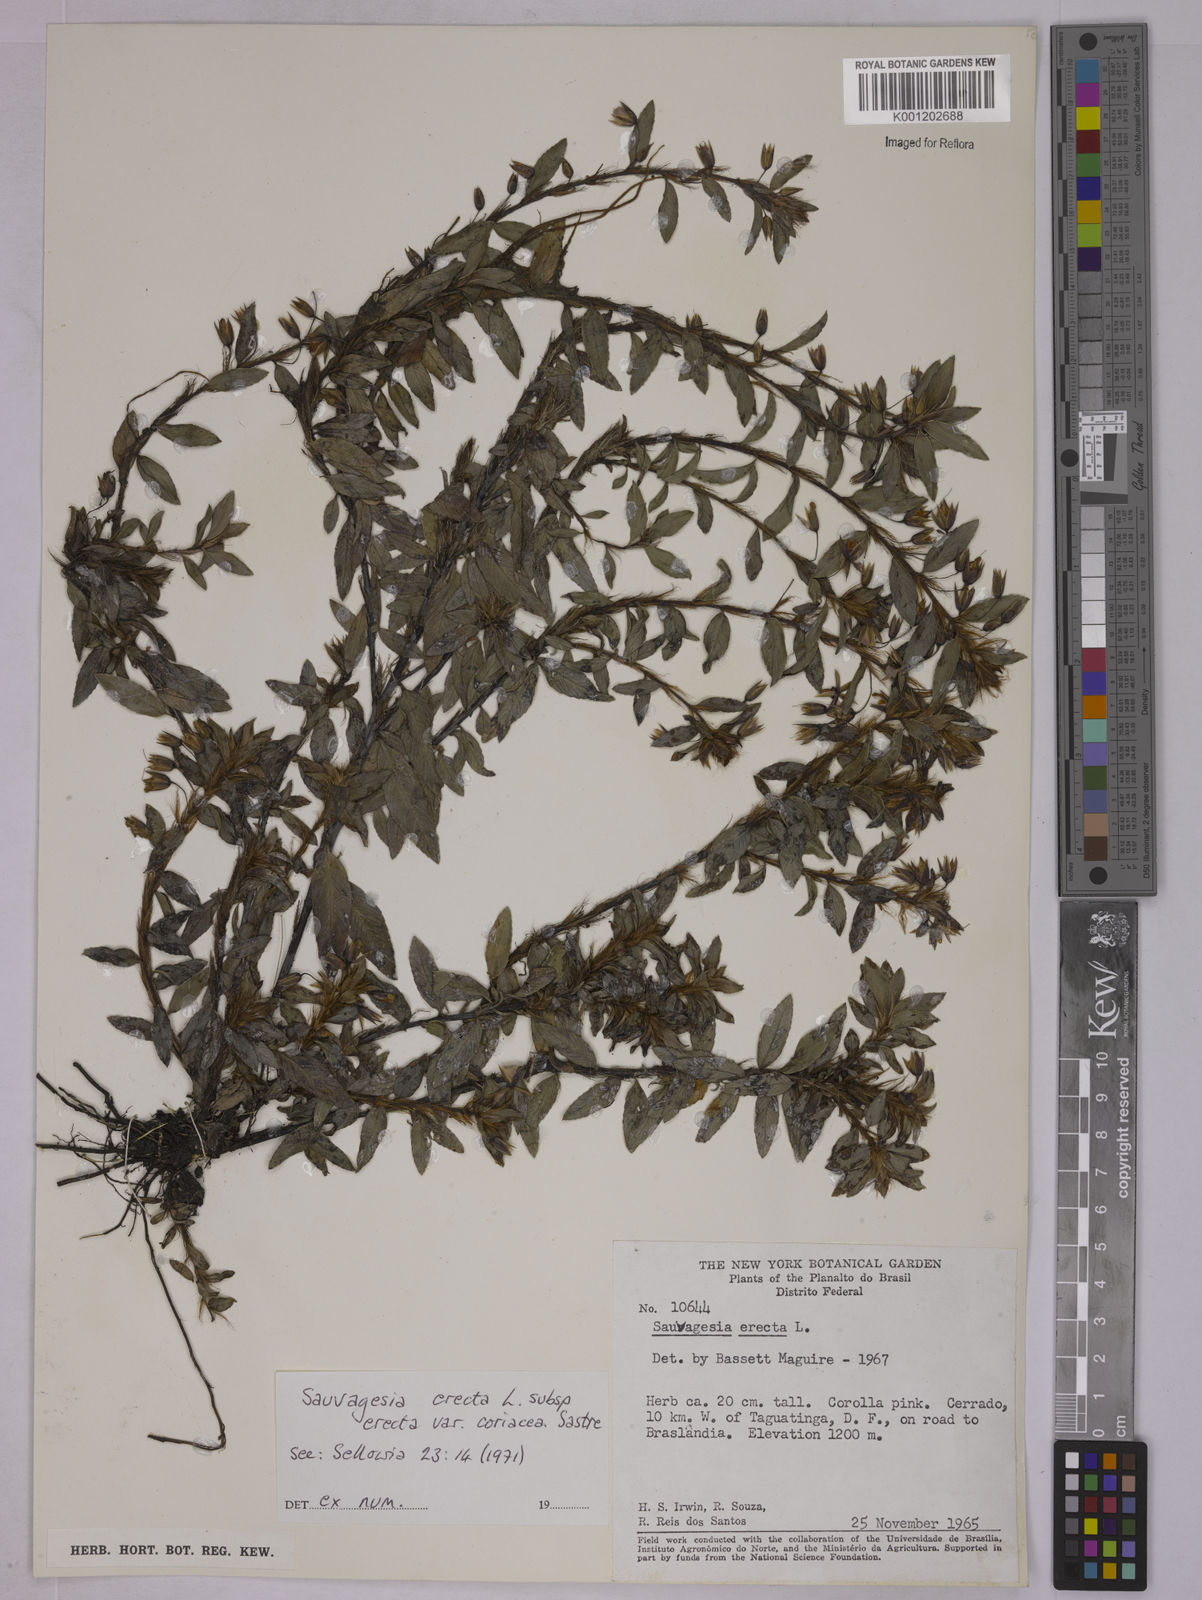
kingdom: Plantae
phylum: Tracheophyta
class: Magnoliopsida
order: Malpighiales
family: Ochnaceae
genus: Sauvagesia
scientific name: Sauvagesia erecta
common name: Creole tea
